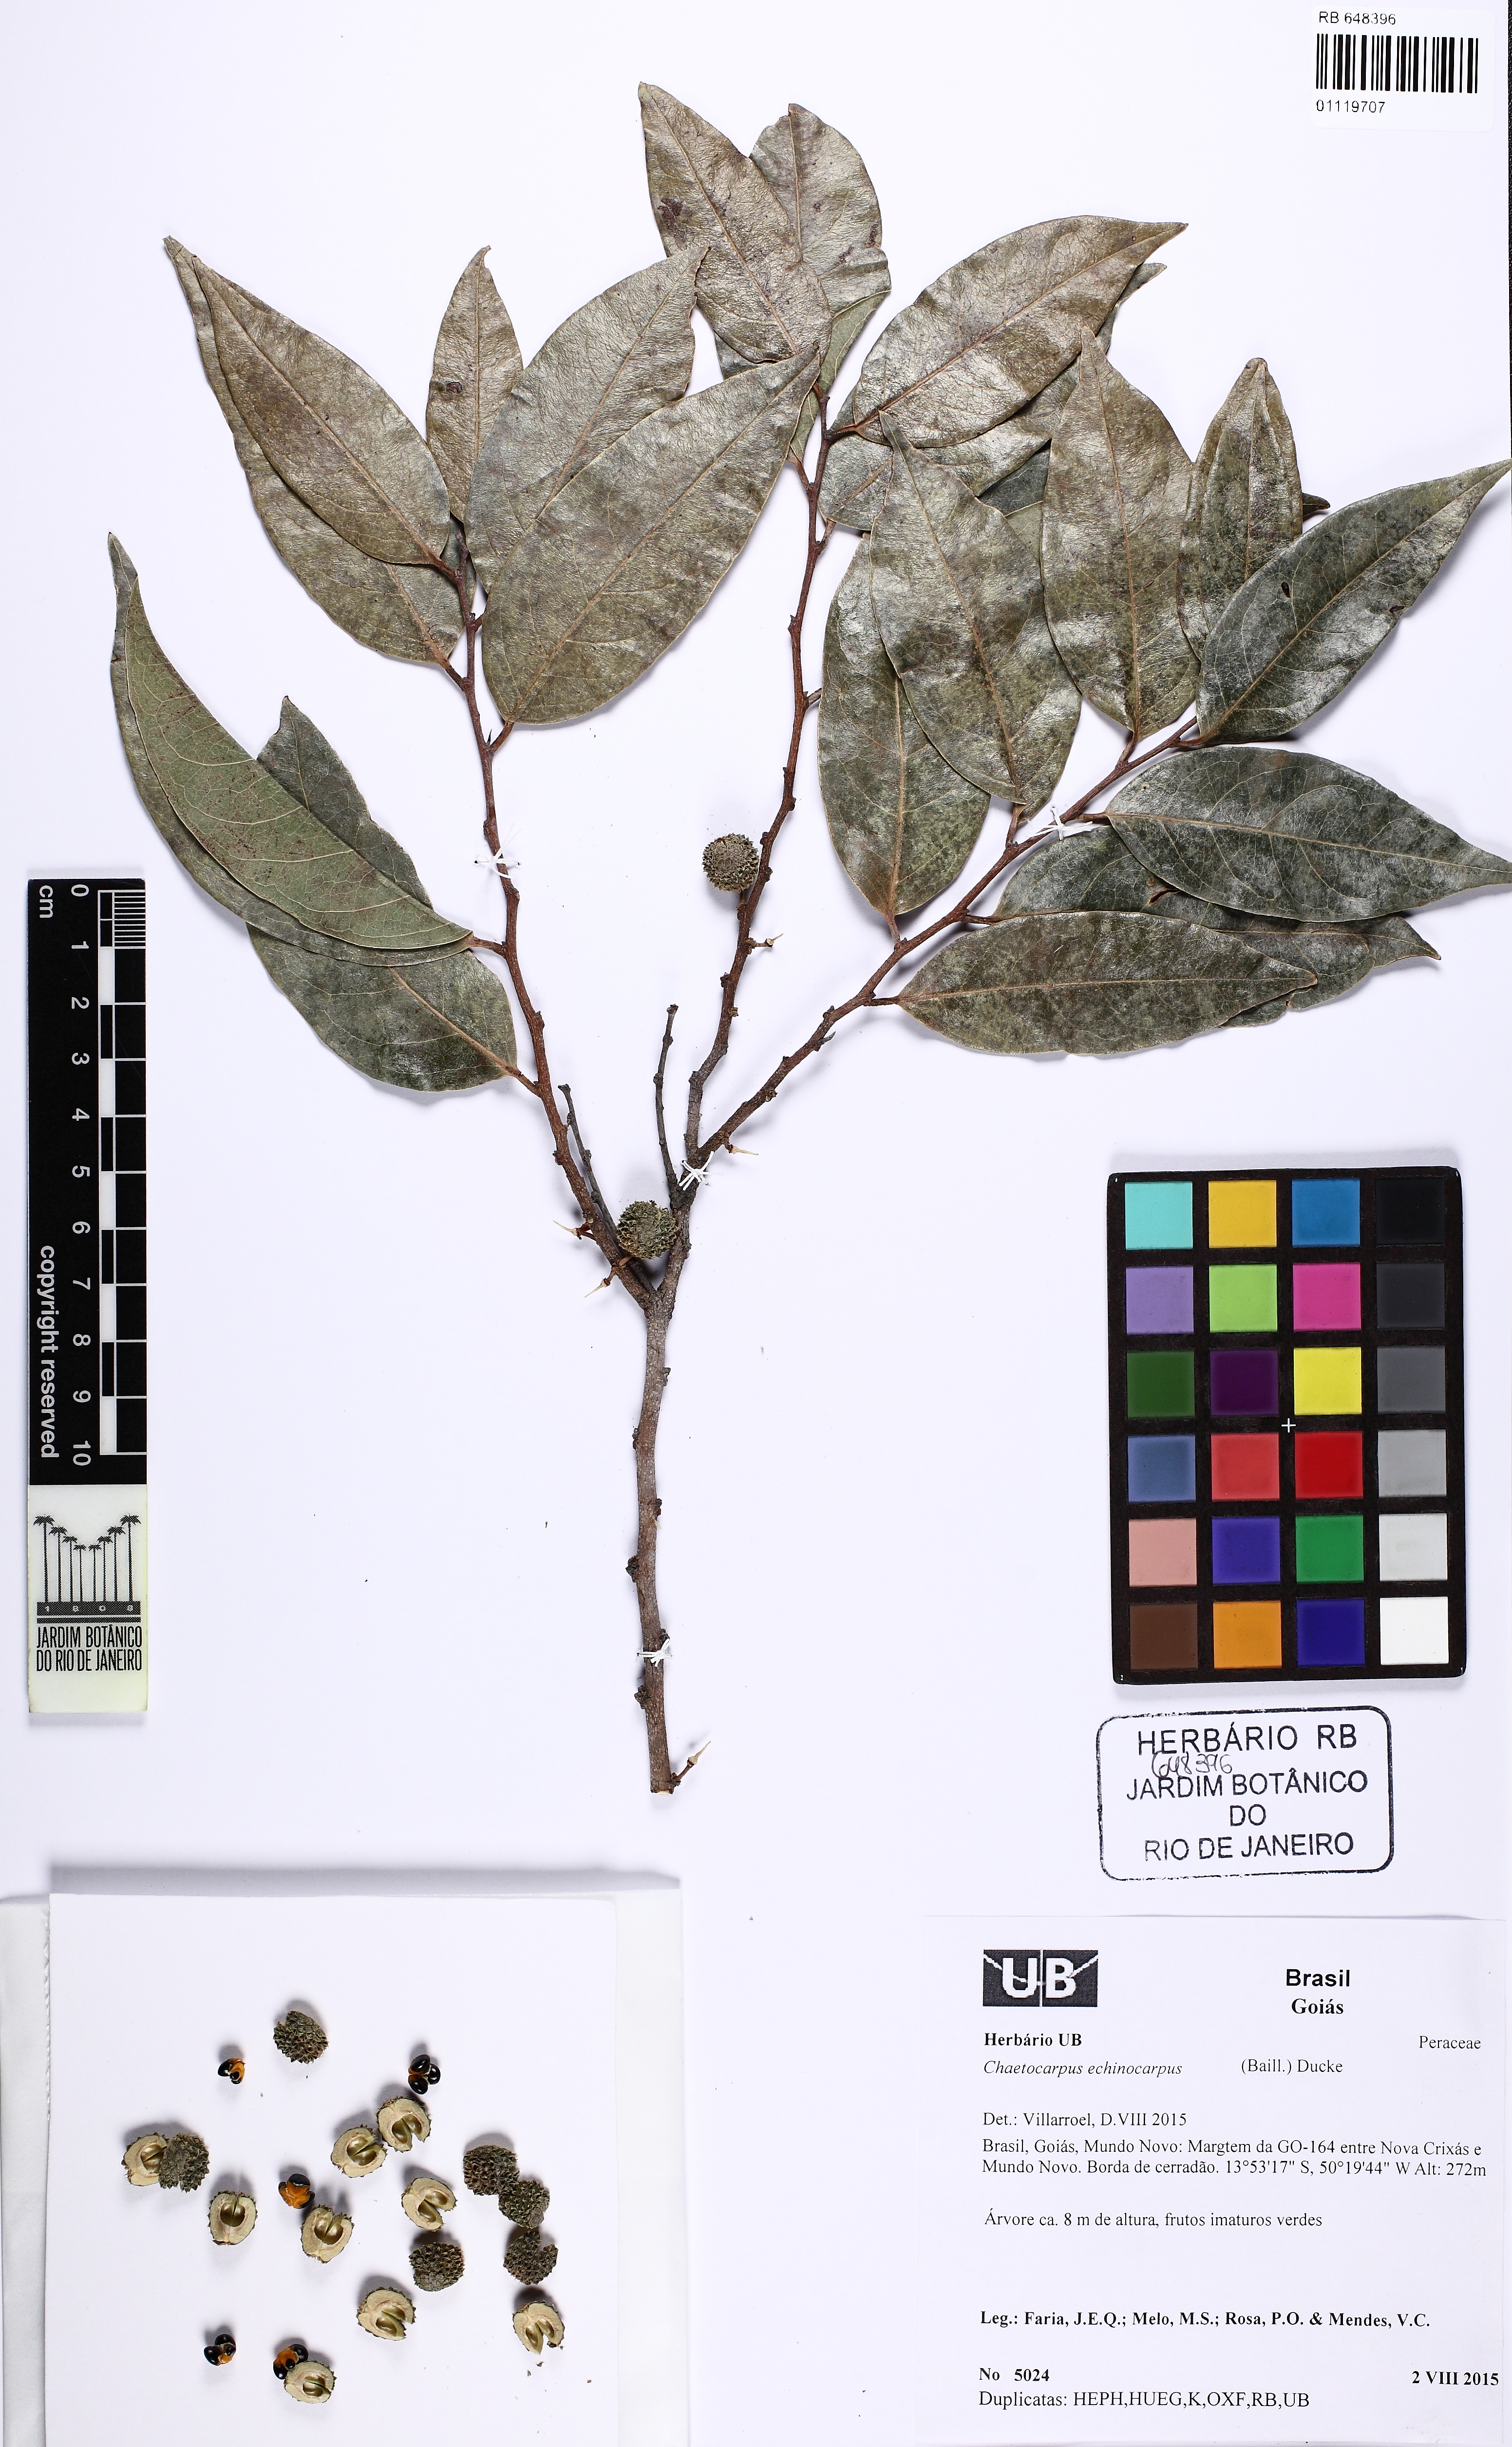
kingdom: Plantae
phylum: Tracheophyta
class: Magnoliopsida
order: Malpighiales
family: Peraceae
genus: Chaetocarpus
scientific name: Chaetocarpus echinocarpus
